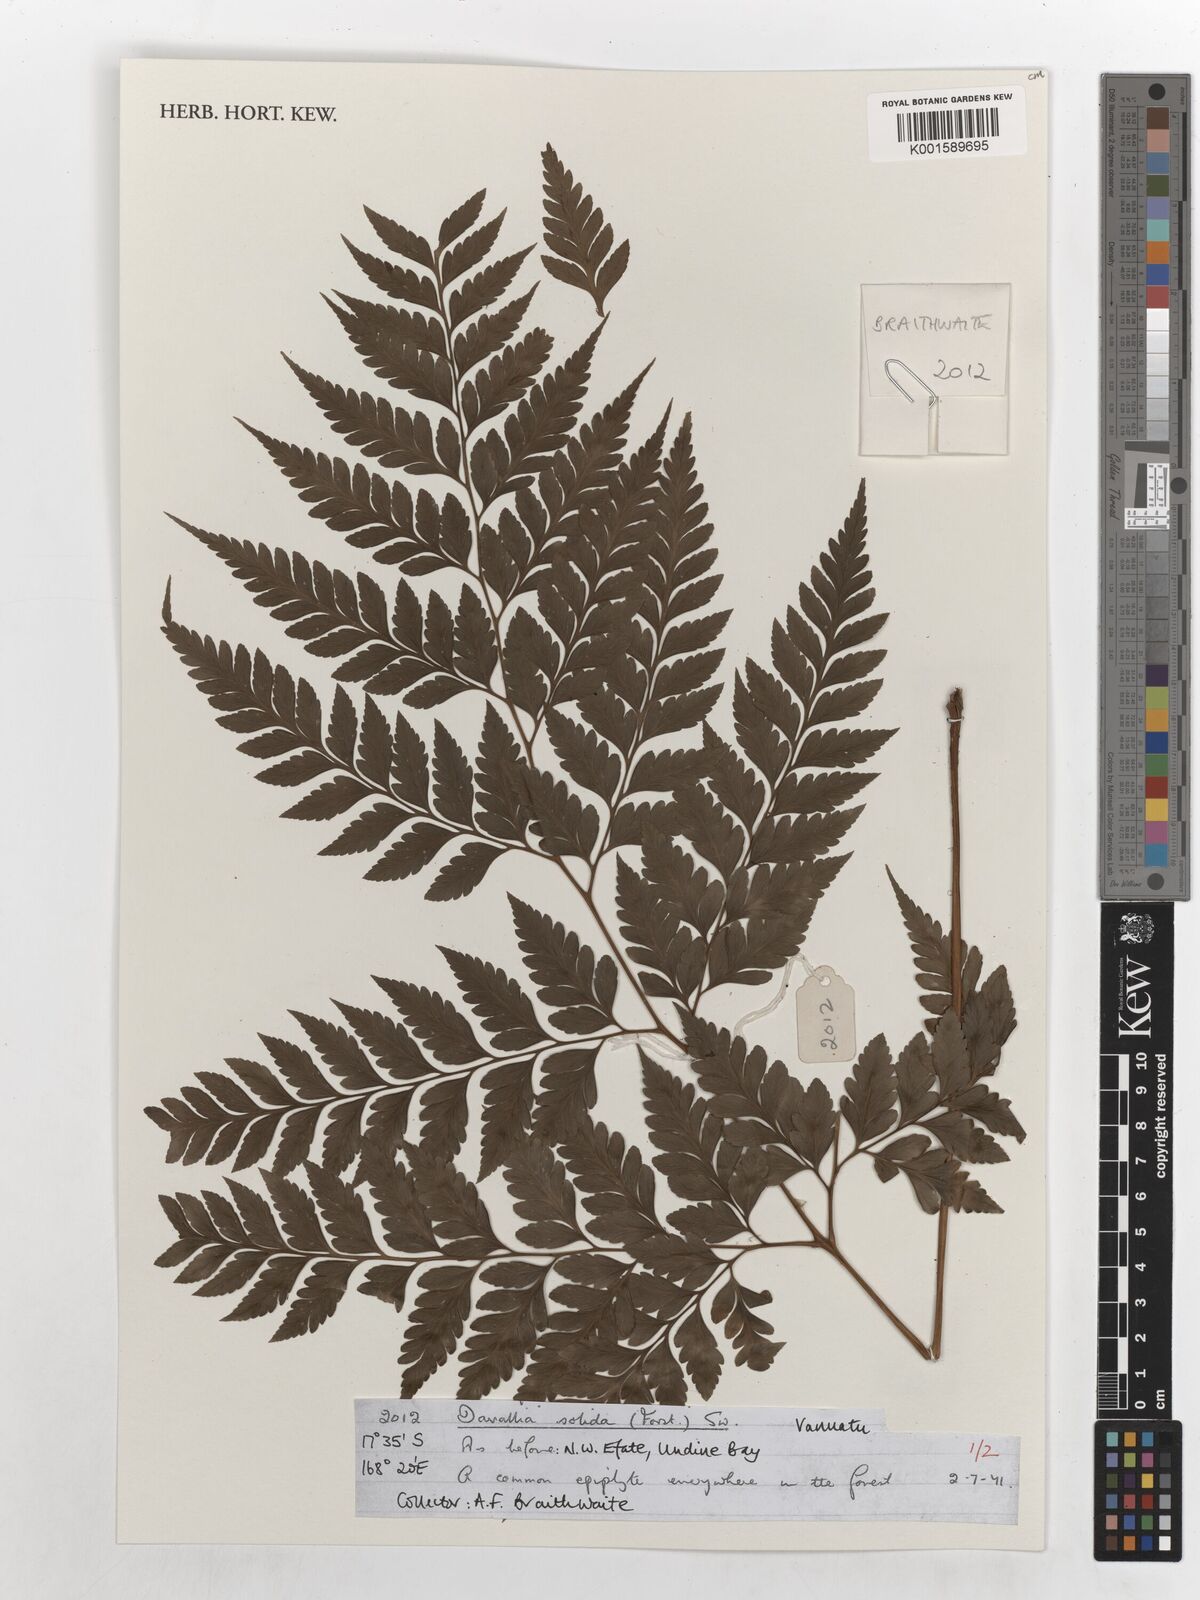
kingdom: Plantae
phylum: Tracheophyta
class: Polypodiopsida
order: Polypodiales
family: Davalliaceae
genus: Davallia
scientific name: Davallia solida
